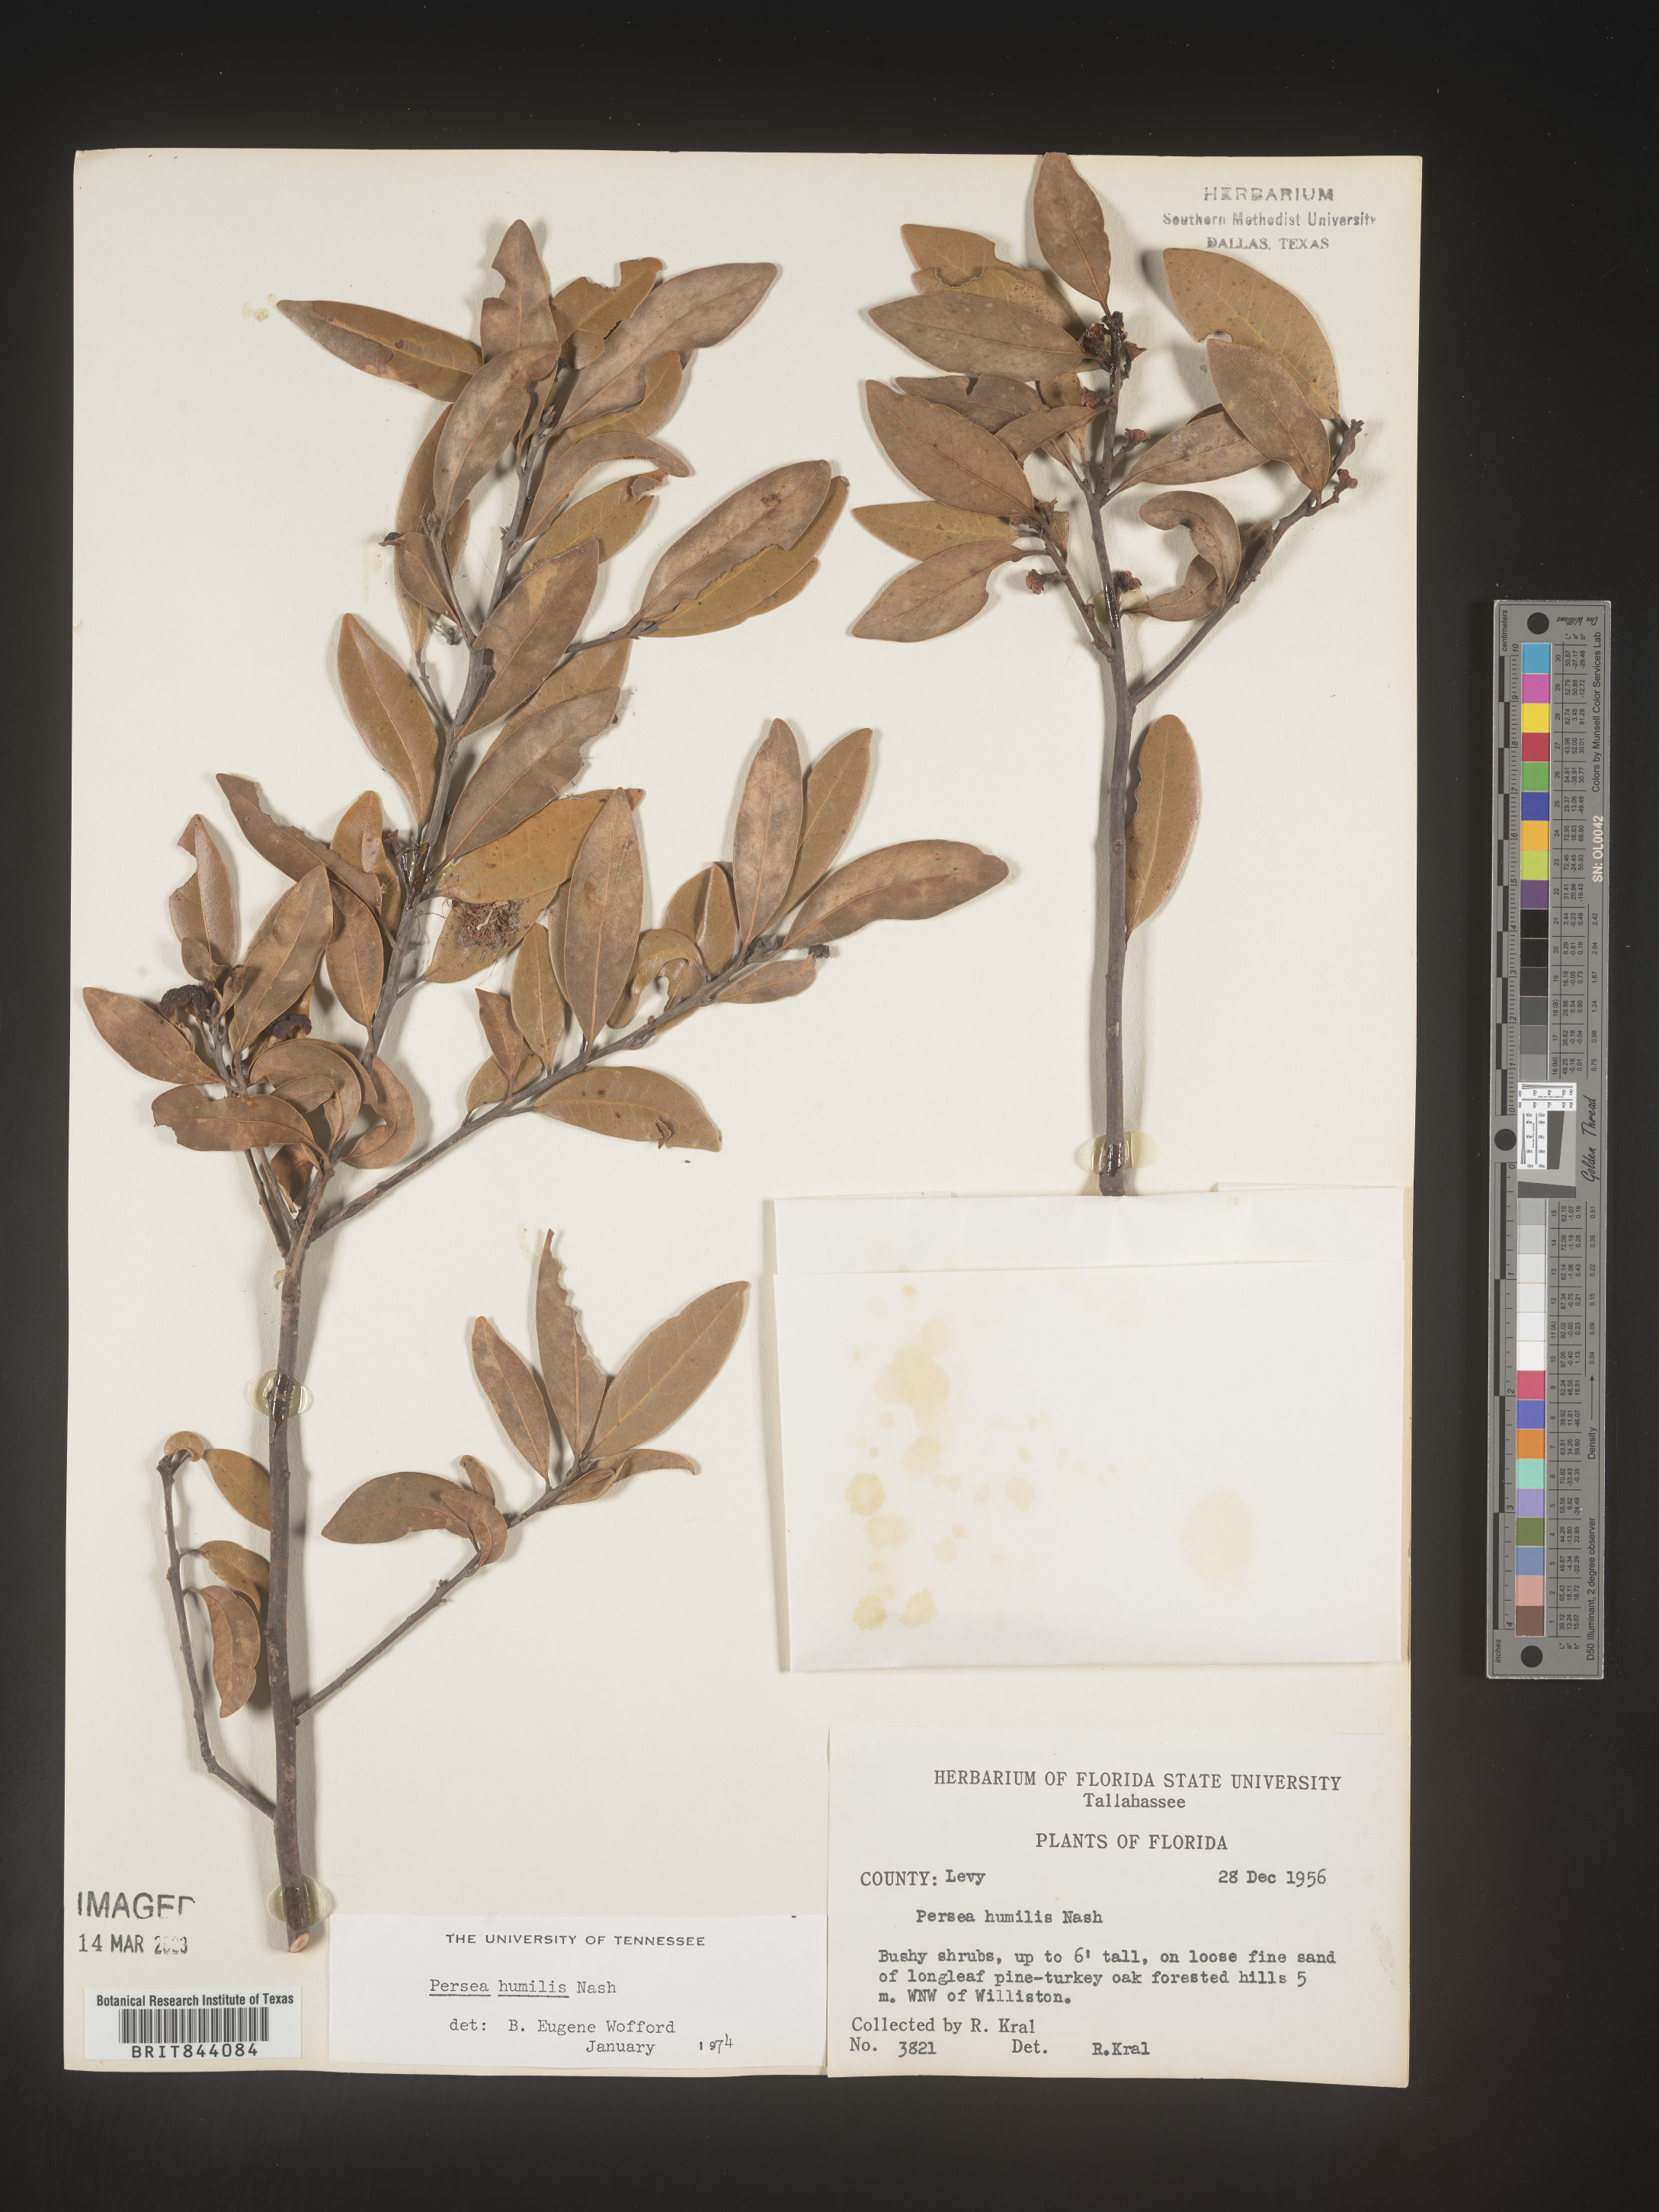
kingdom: Plantae
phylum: Tracheophyta
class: Magnoliopsida
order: Laurales
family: Lauraceae
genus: Persea
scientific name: Persea
